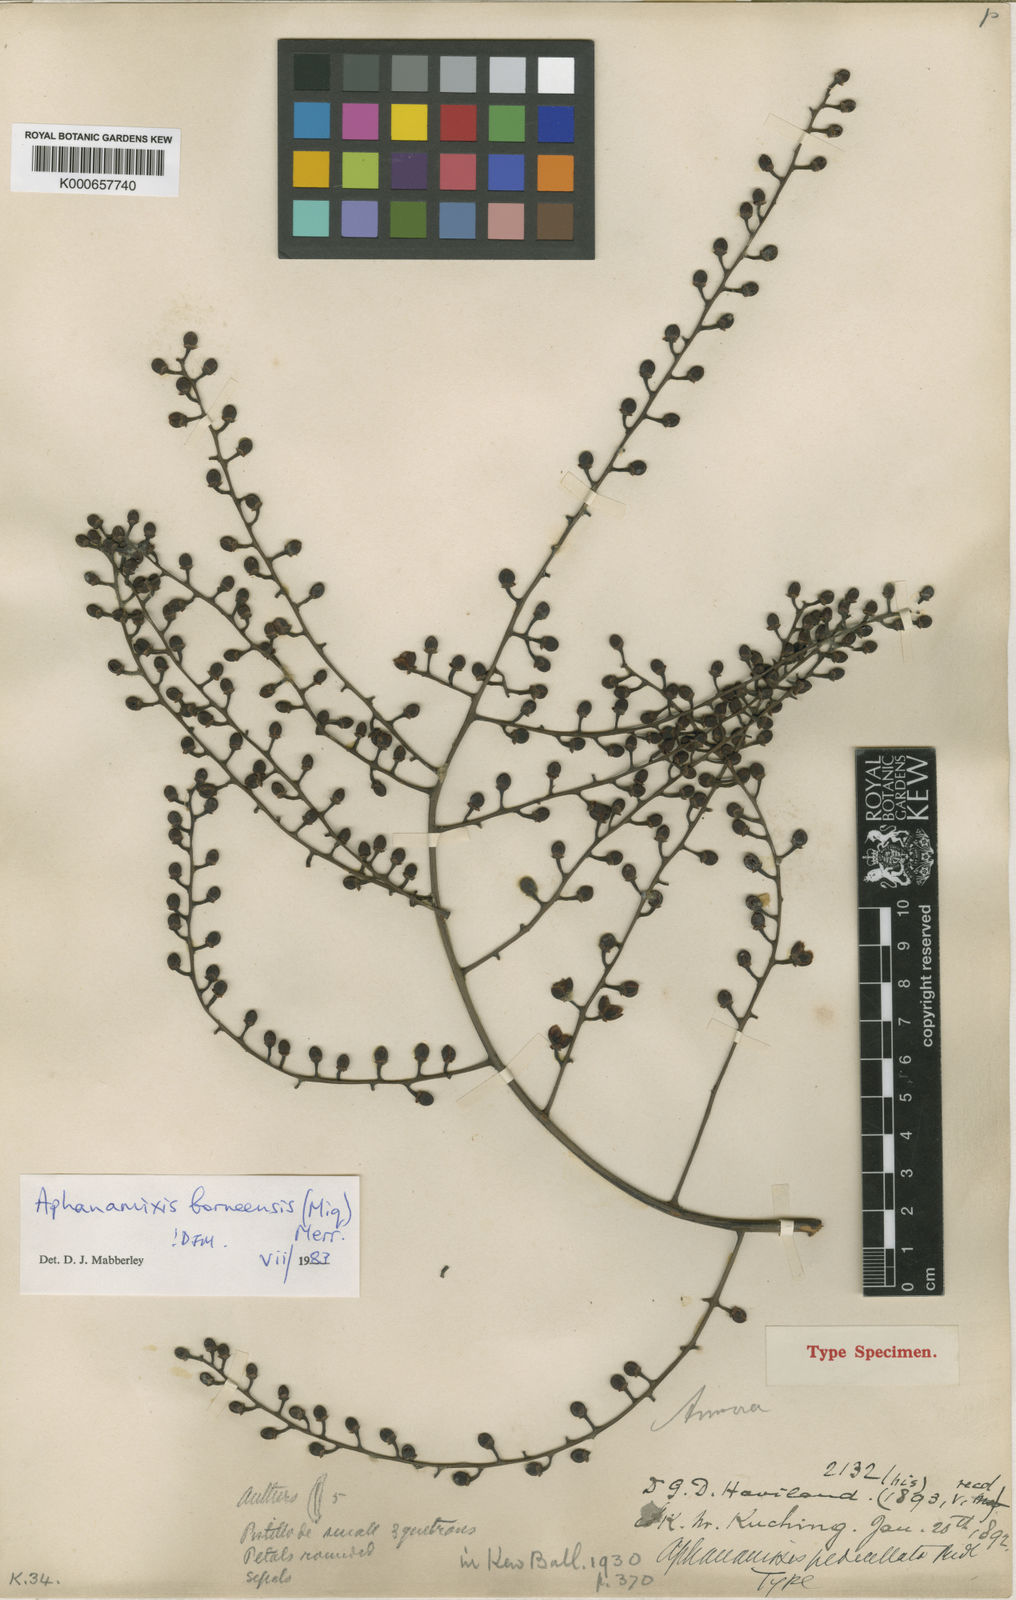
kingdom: Plantae
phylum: Tracheophyta
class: Magnoliopsida
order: Sapindales
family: Meliaceae
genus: Aphanamixis
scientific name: Aphanamixis borneensis
